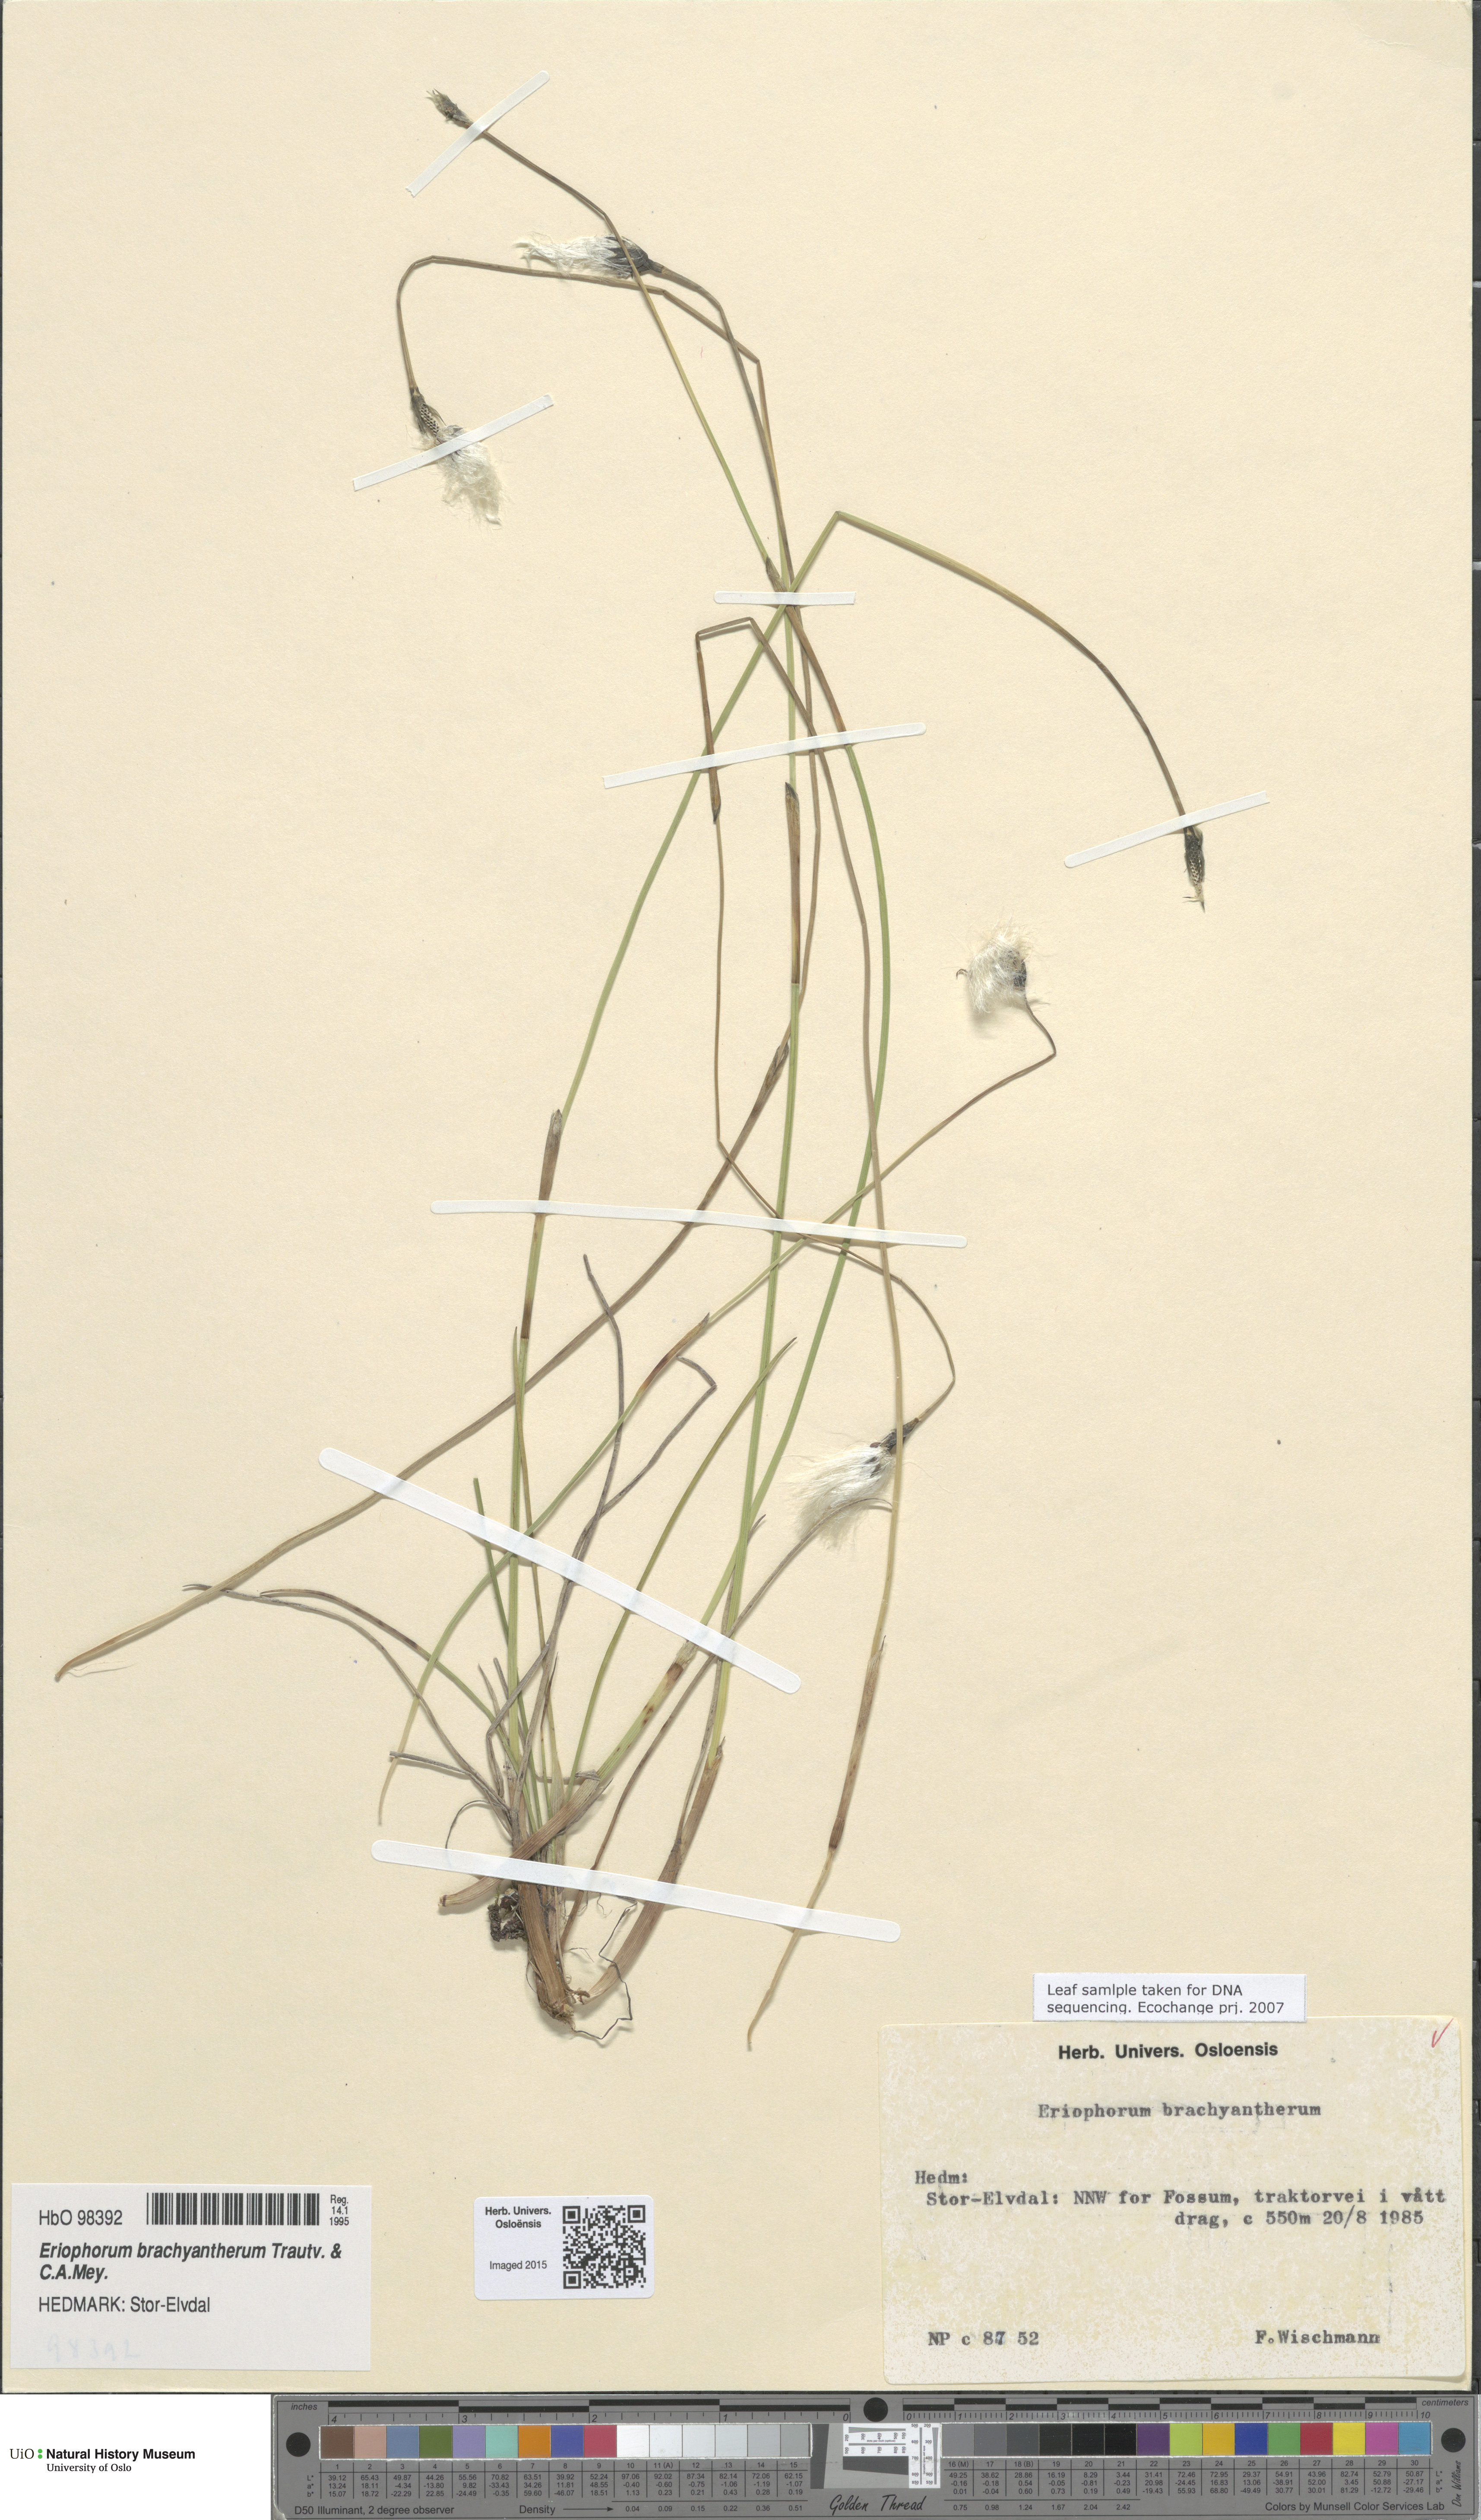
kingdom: Plantae
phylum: Tracheophyta
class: Liliopsida
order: Poales
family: Cyperaceae
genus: Eriophorum
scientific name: Eriophorum brachyantherum
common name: Closed-sheathed cottongrass
